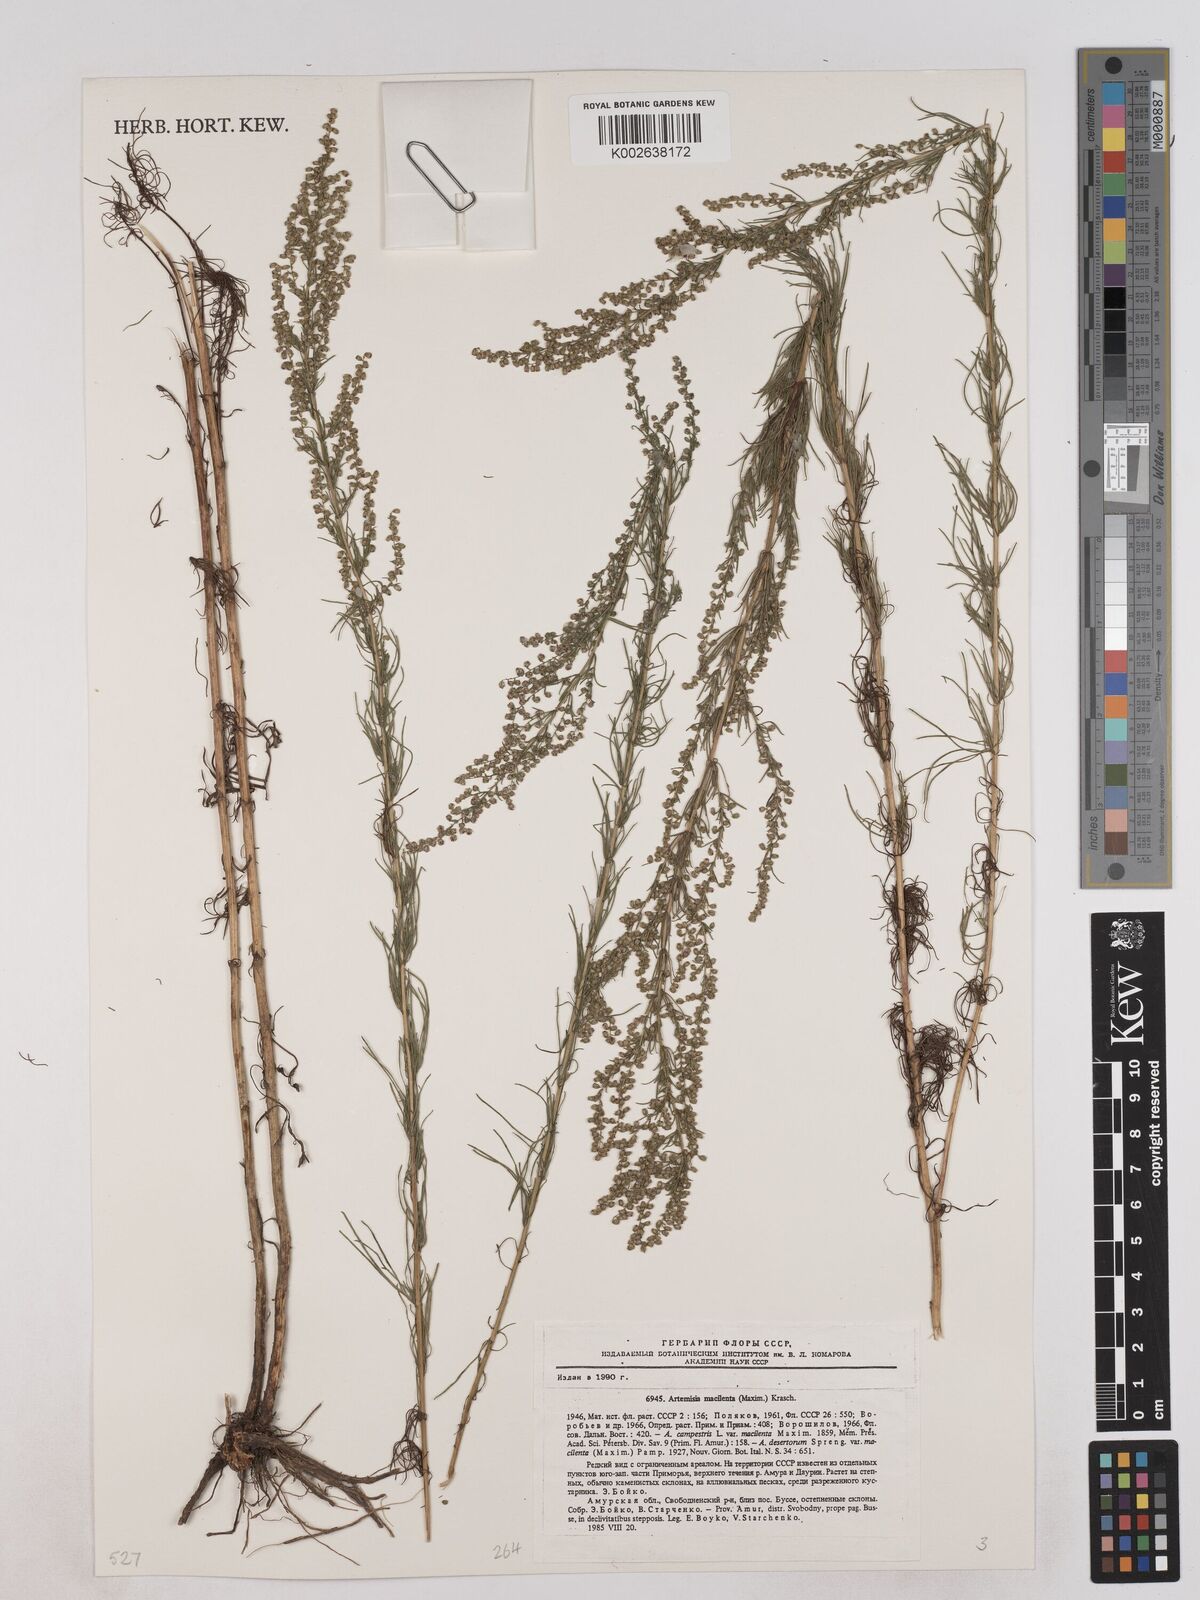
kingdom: Plantae
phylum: Tracheophyta
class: Magnoliopsida
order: Asterales
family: Asteraceae
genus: Artemisia
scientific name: Artemisia macilenta
